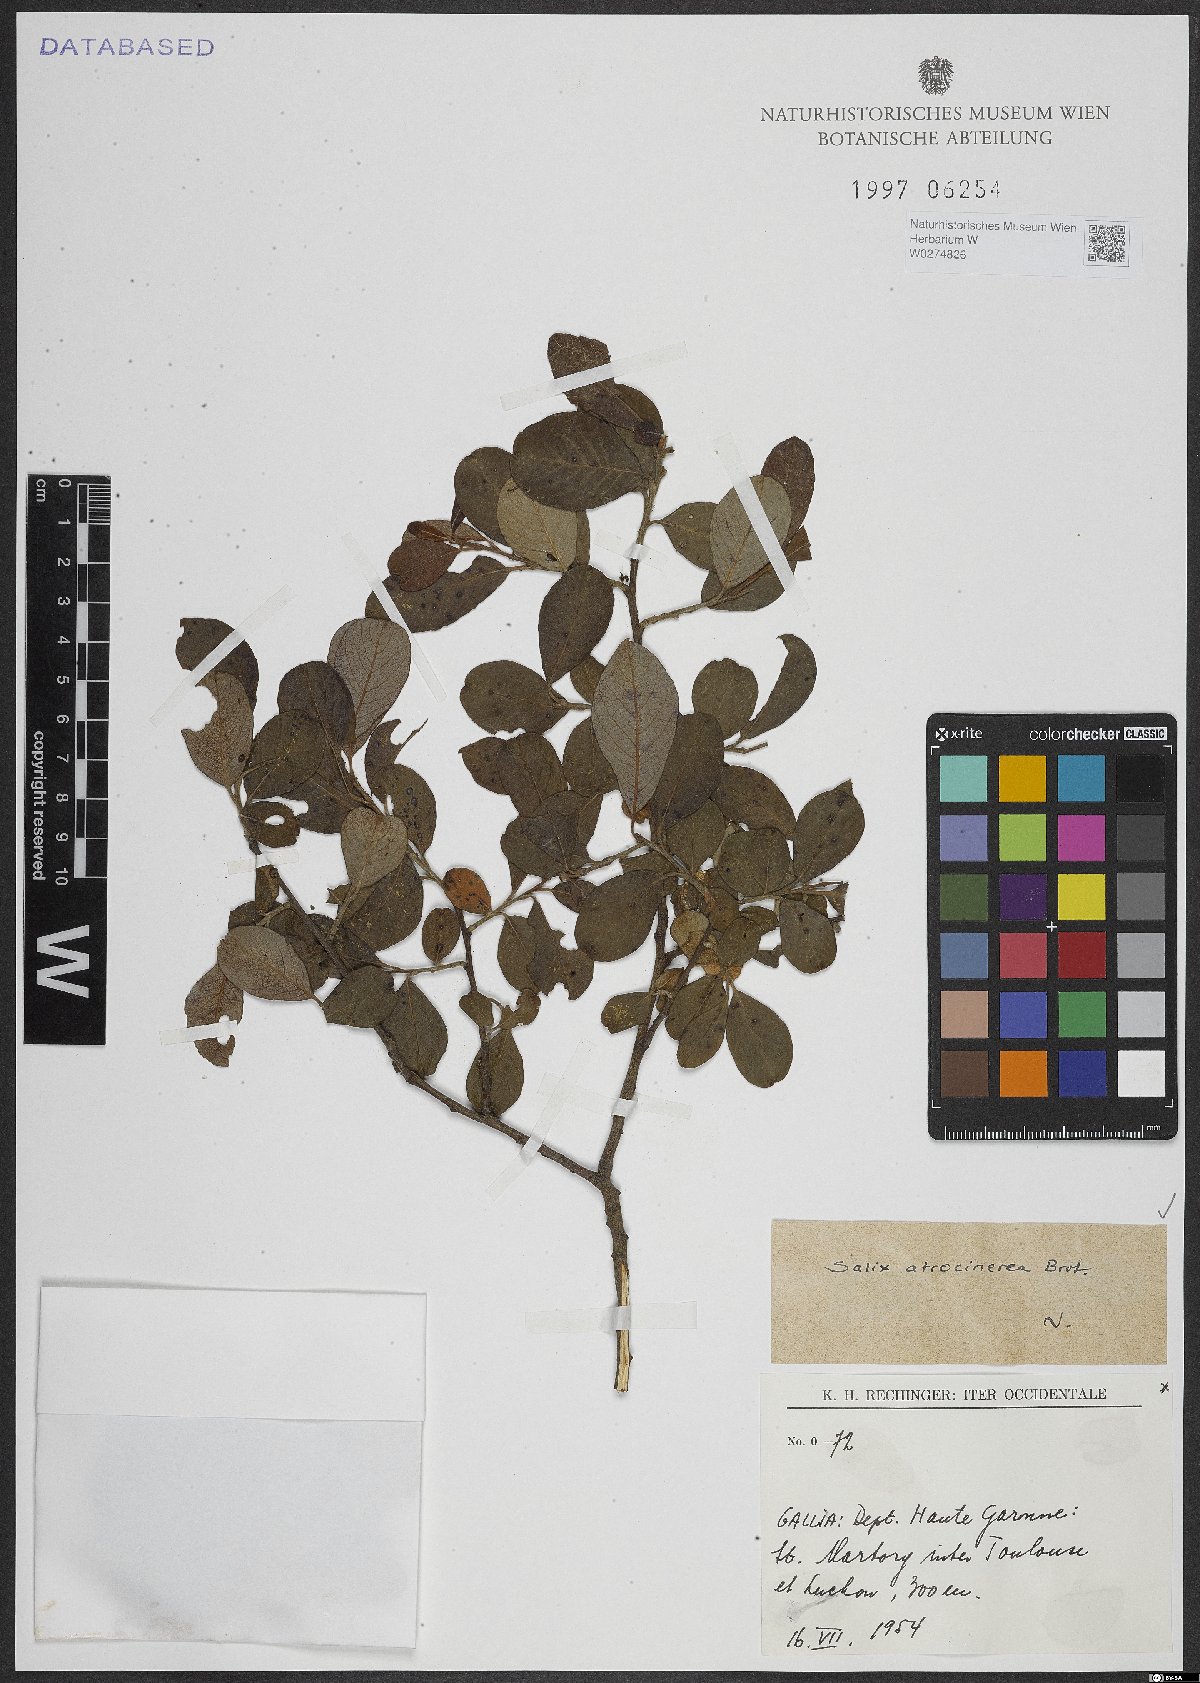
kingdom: Plantae
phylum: Tracheophyta
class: Magnoliopsida
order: Malpighiales
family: Salicaceae
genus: Salix
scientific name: Salix atrocinerea
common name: Rusty willow
